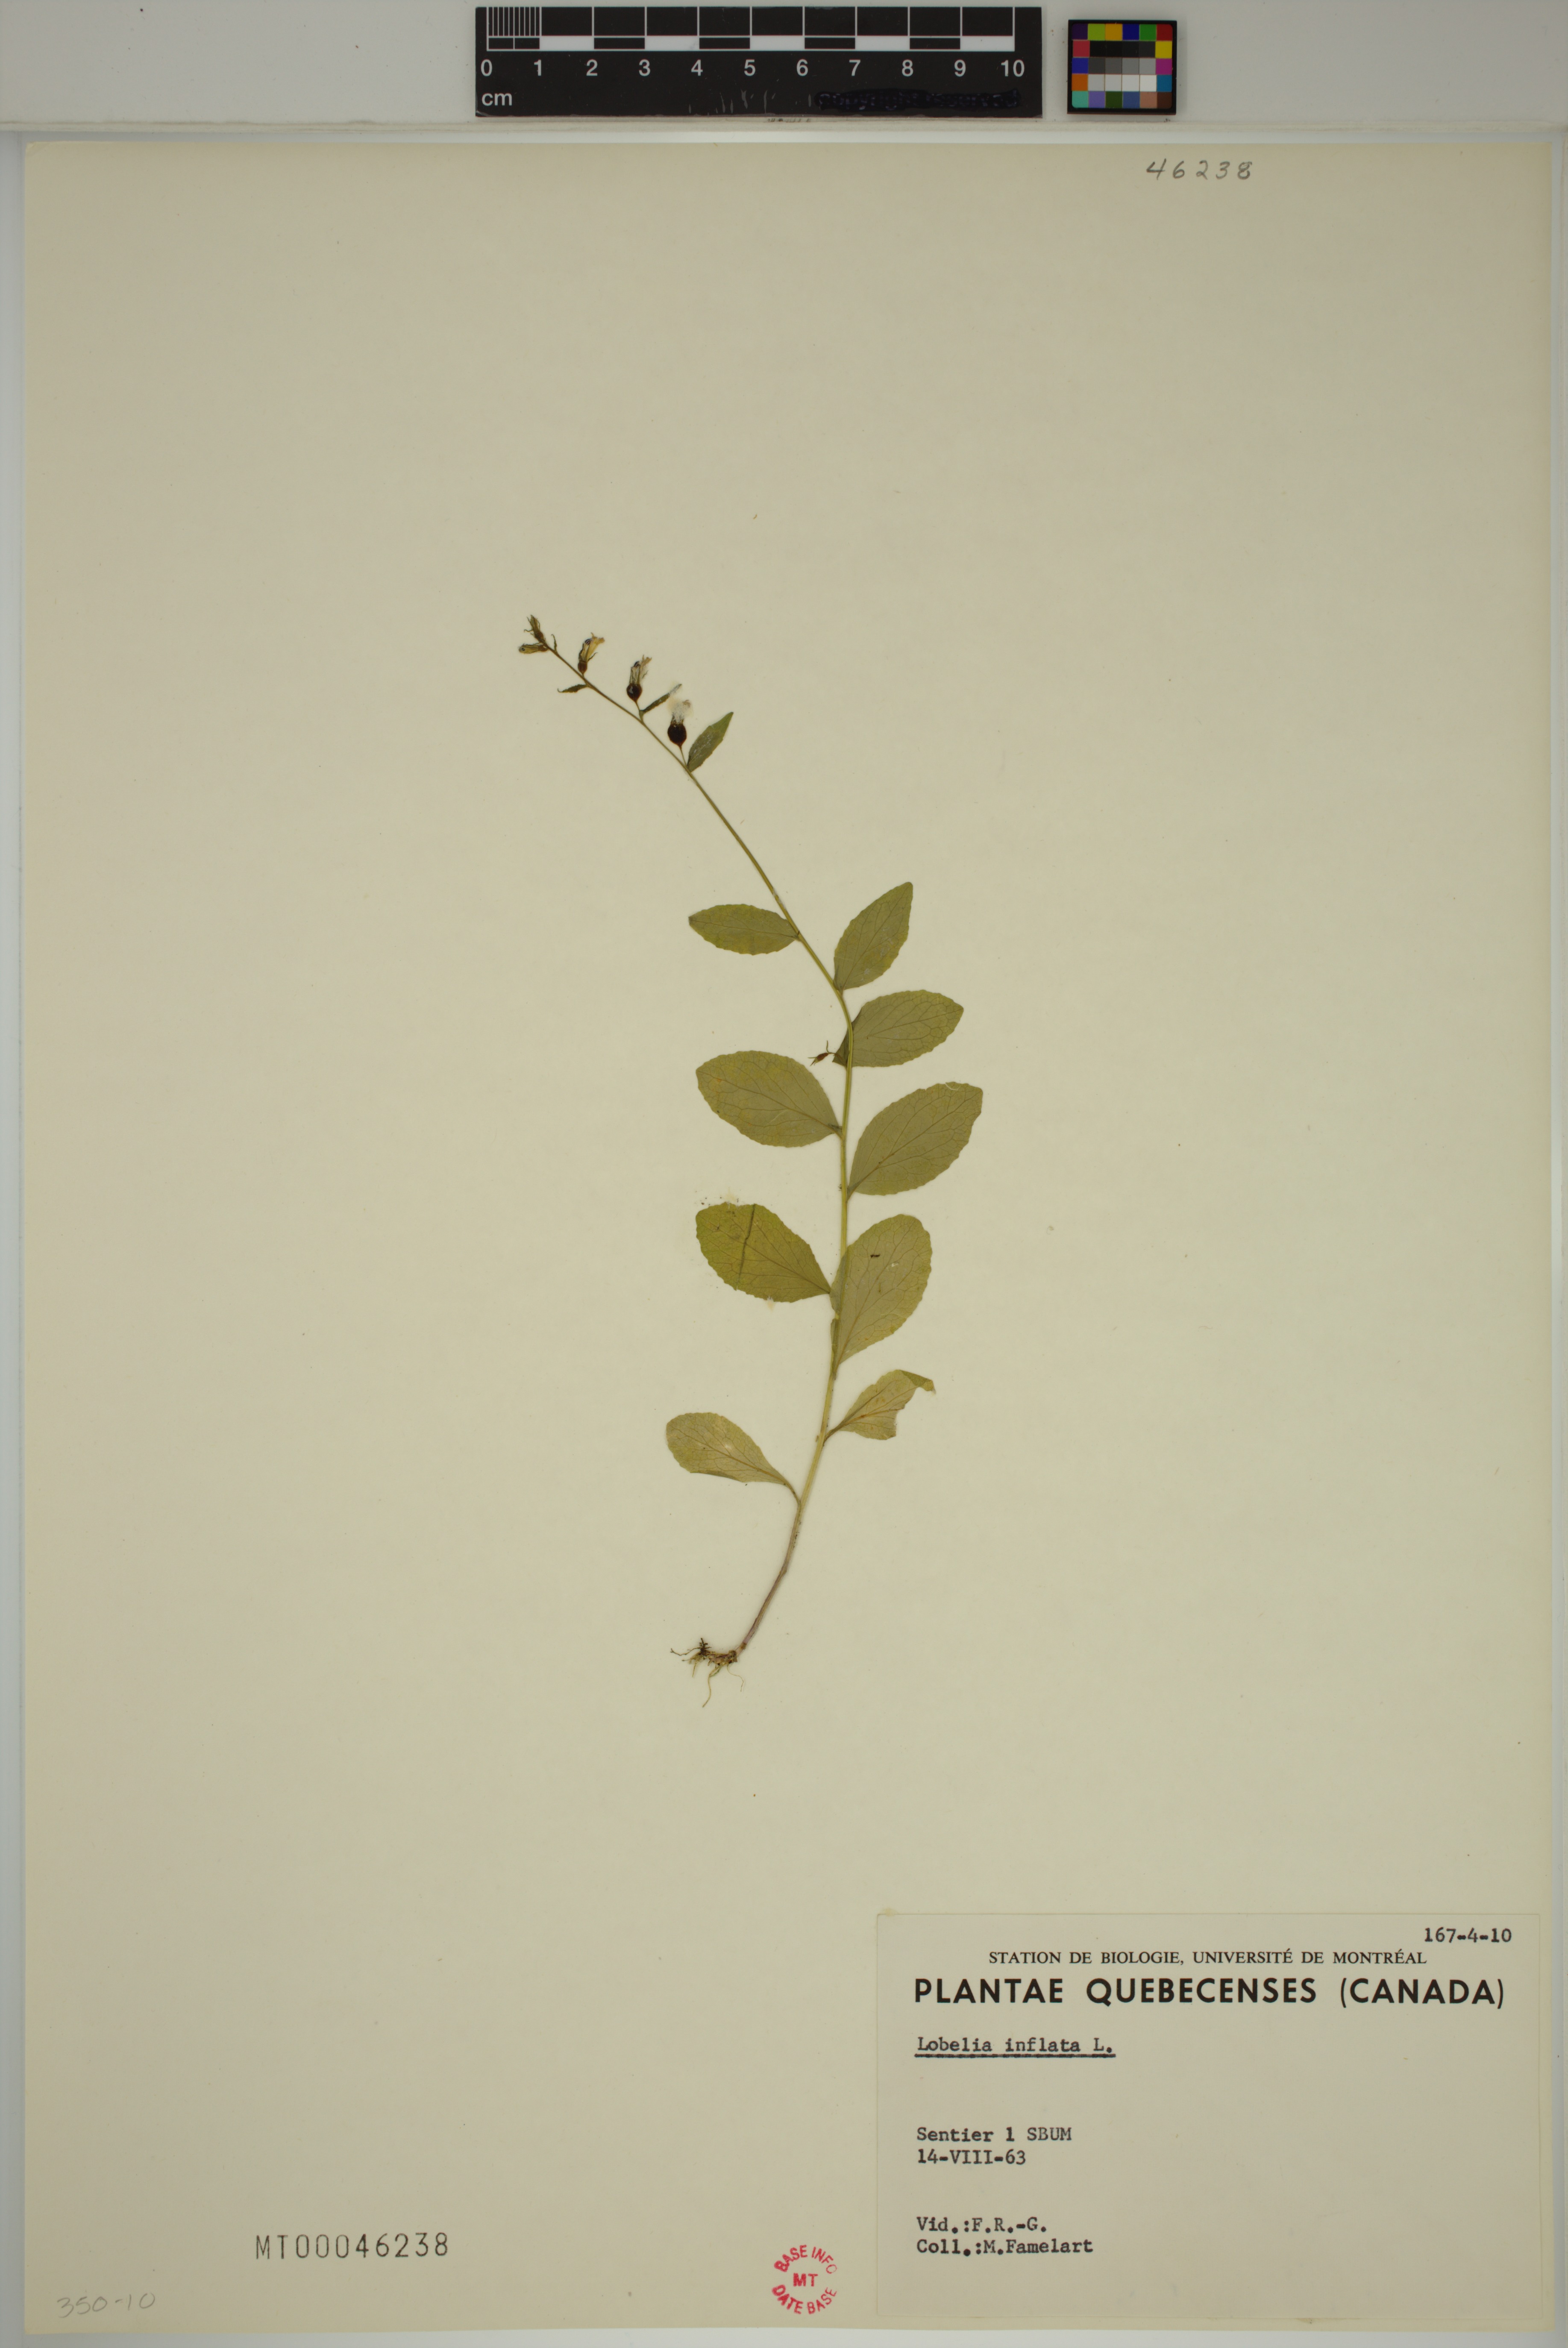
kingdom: Plantae
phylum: Tracheophyta
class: Magnoliopsida
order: Asterales
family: Campanulaceae
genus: Lobelia
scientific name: Lobelia inflata
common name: Indian tobacco
